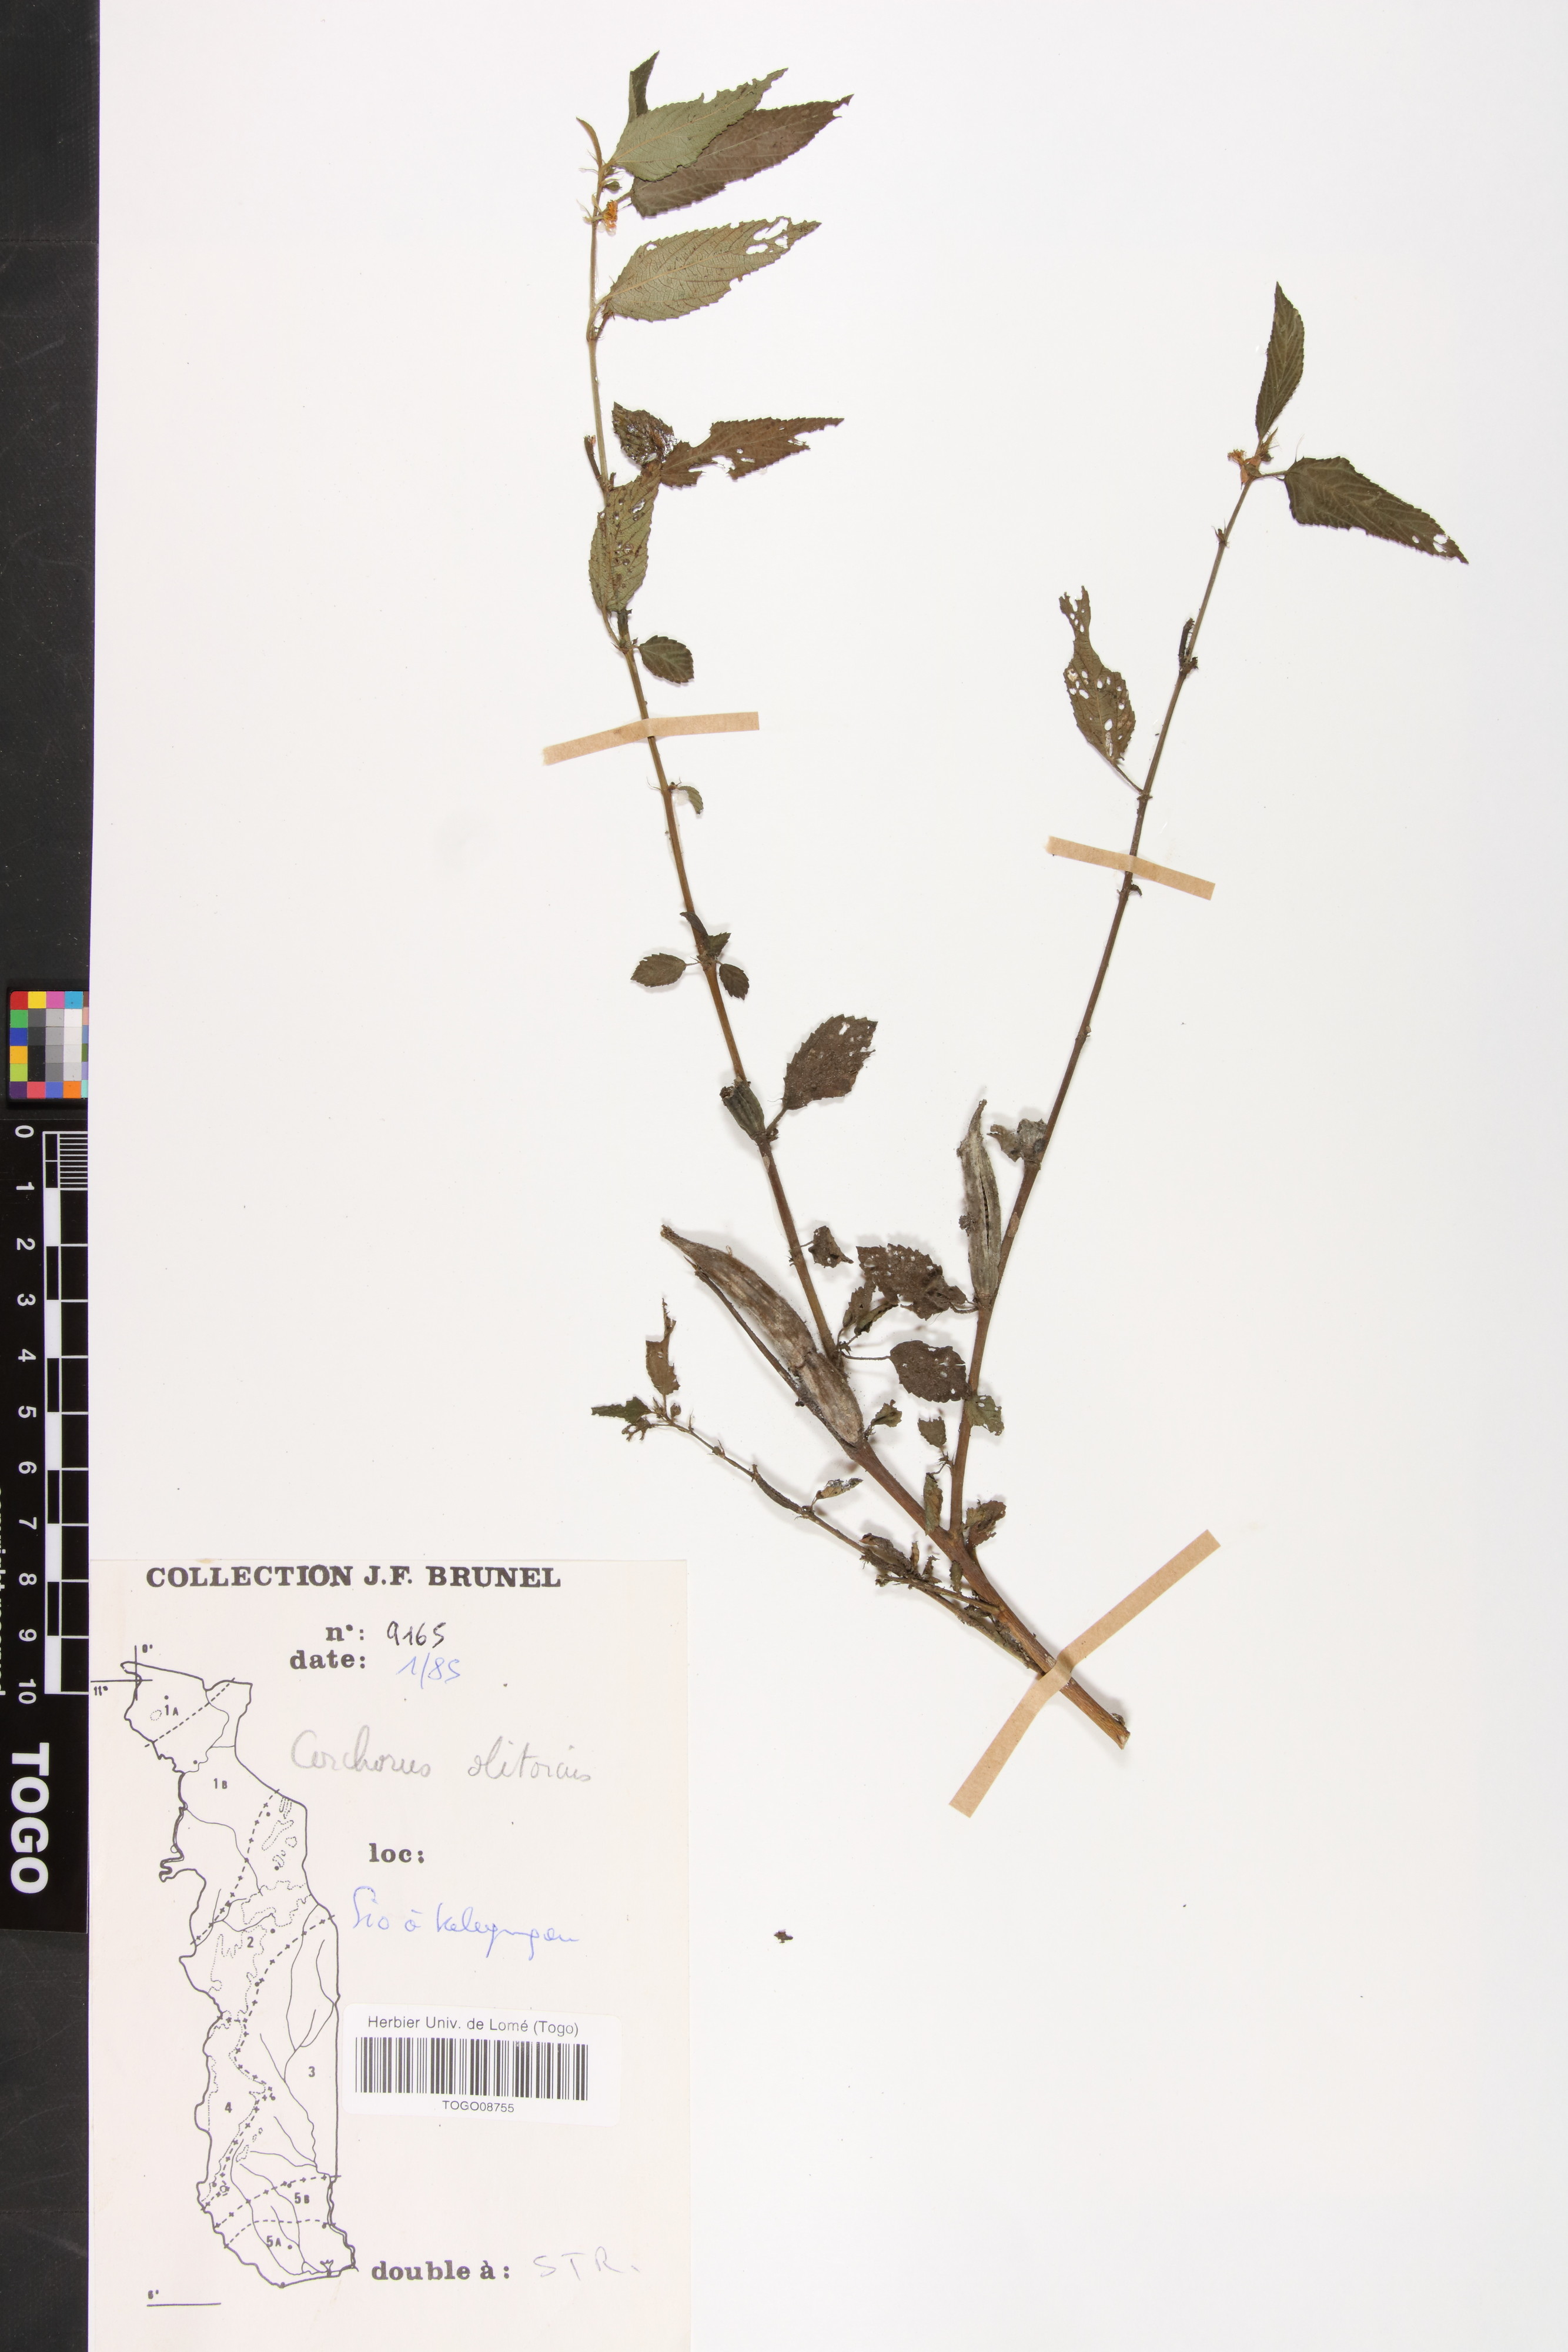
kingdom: Plantae
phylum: Tracheophyta
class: Magnoliopsida
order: Malvales
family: Malvaceae
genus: Corchorus
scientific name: Corchorus olitorius
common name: Tossa jute
